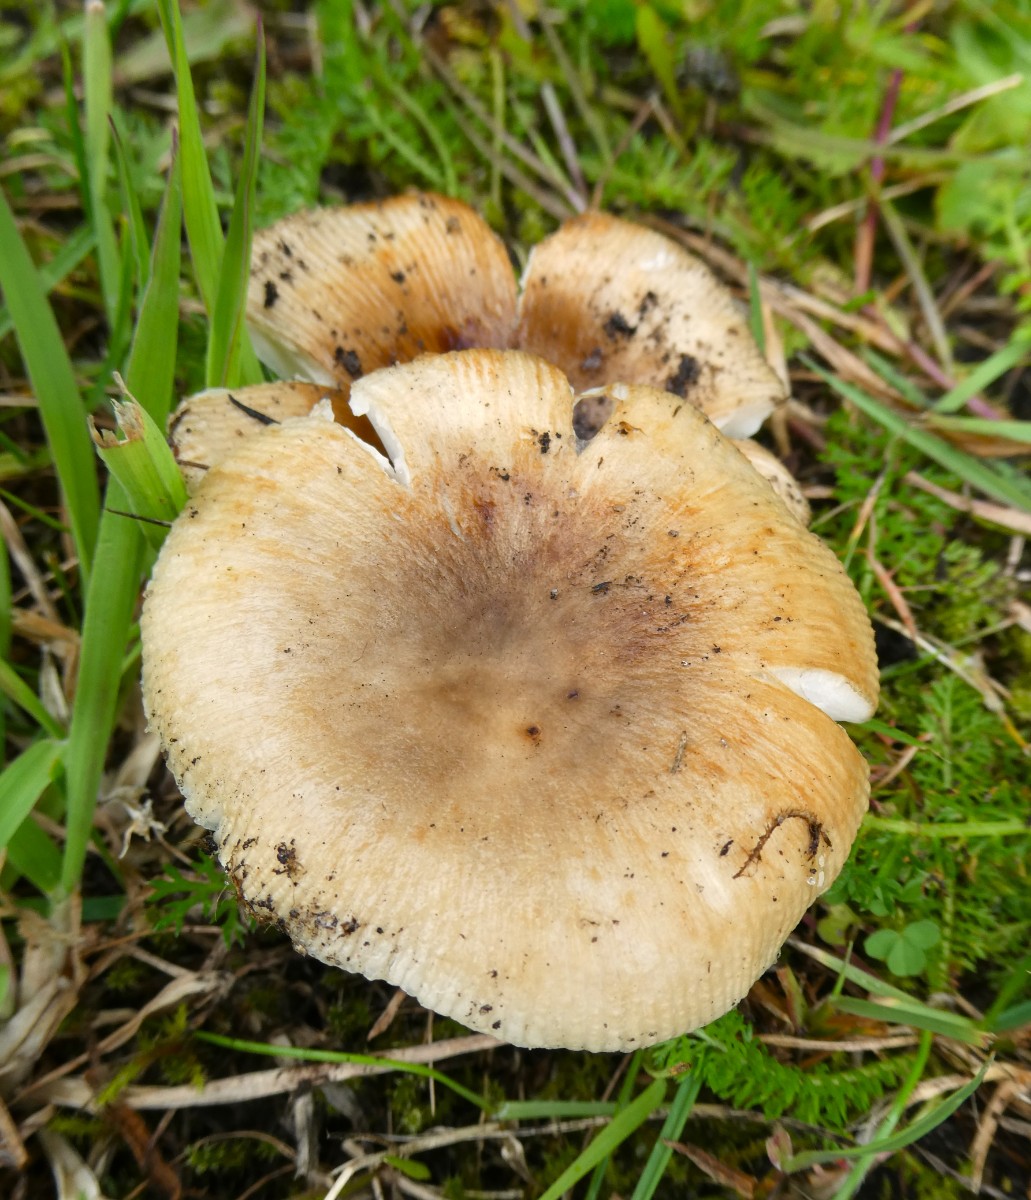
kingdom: Fungi
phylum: Basidiomycota
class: Agaricomycetes
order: Russulales
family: Russulaceae
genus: Russula
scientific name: Russula recondita
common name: mild kam-skørhat
